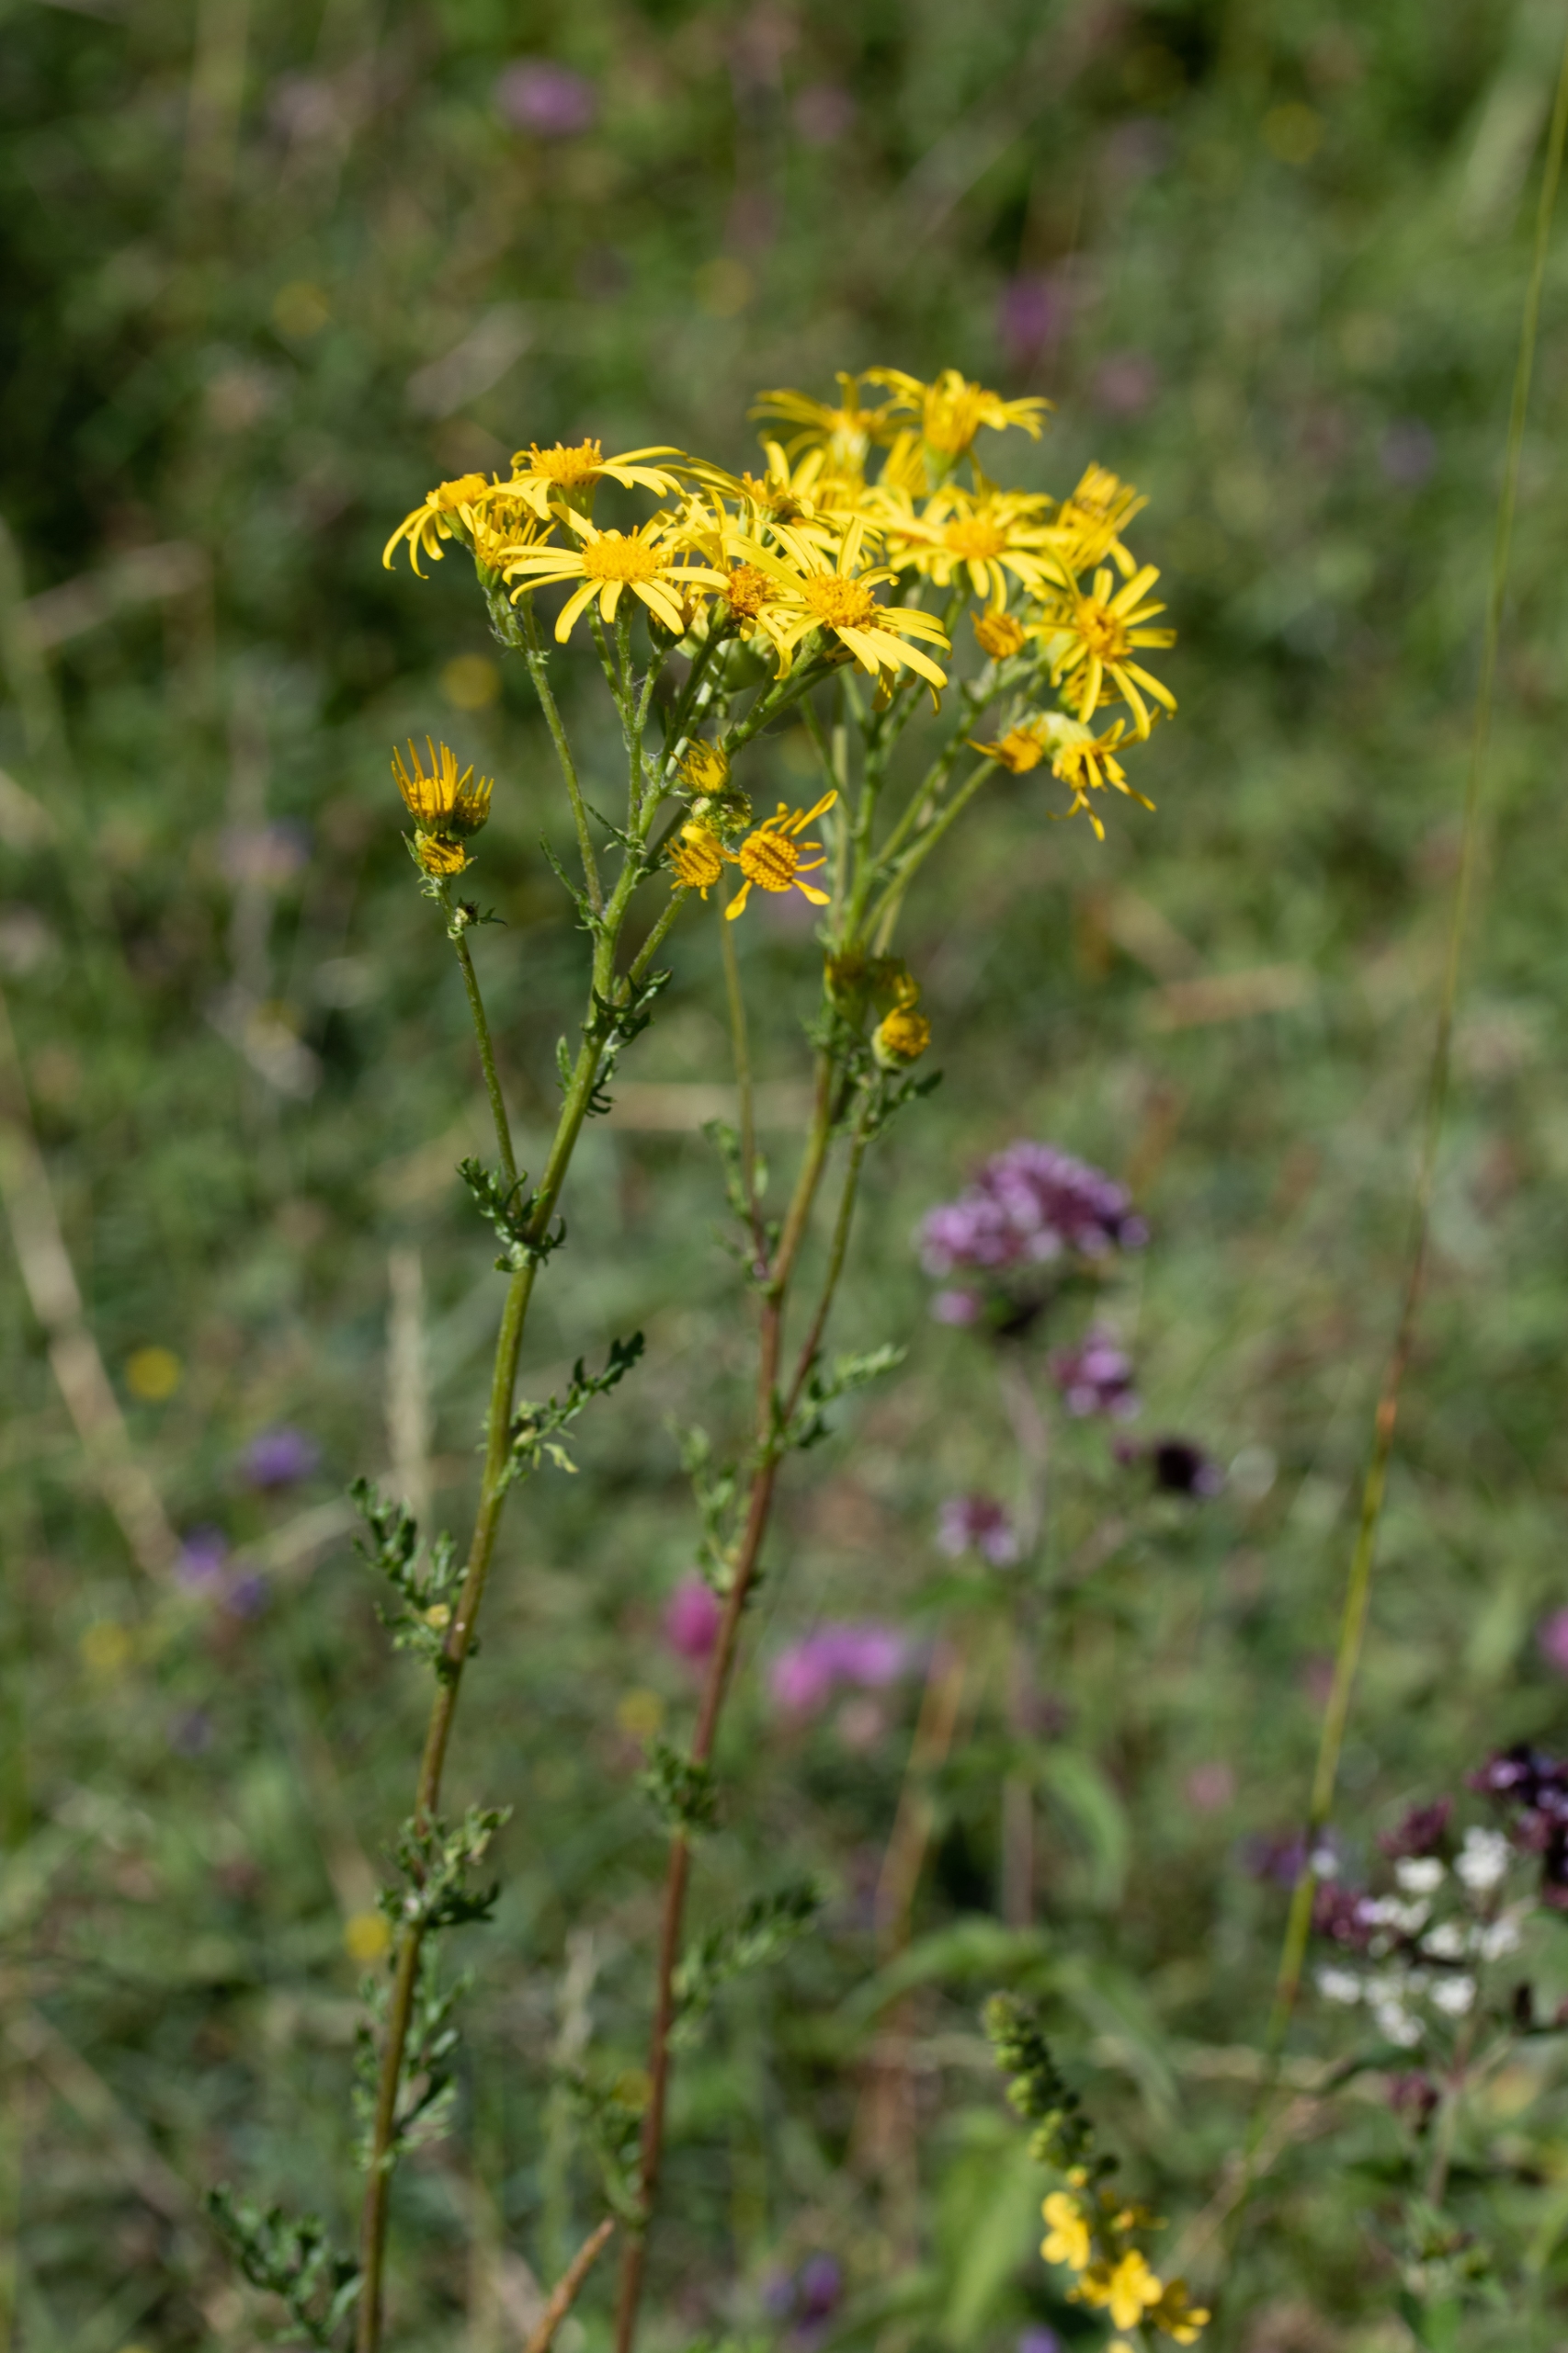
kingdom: Plantae
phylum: Tracheophyta
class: Magnoliopsida
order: Asterales
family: Asteraceae
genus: Jacobaea
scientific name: Jacobaea vulgaris
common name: Eng-brandbæger
